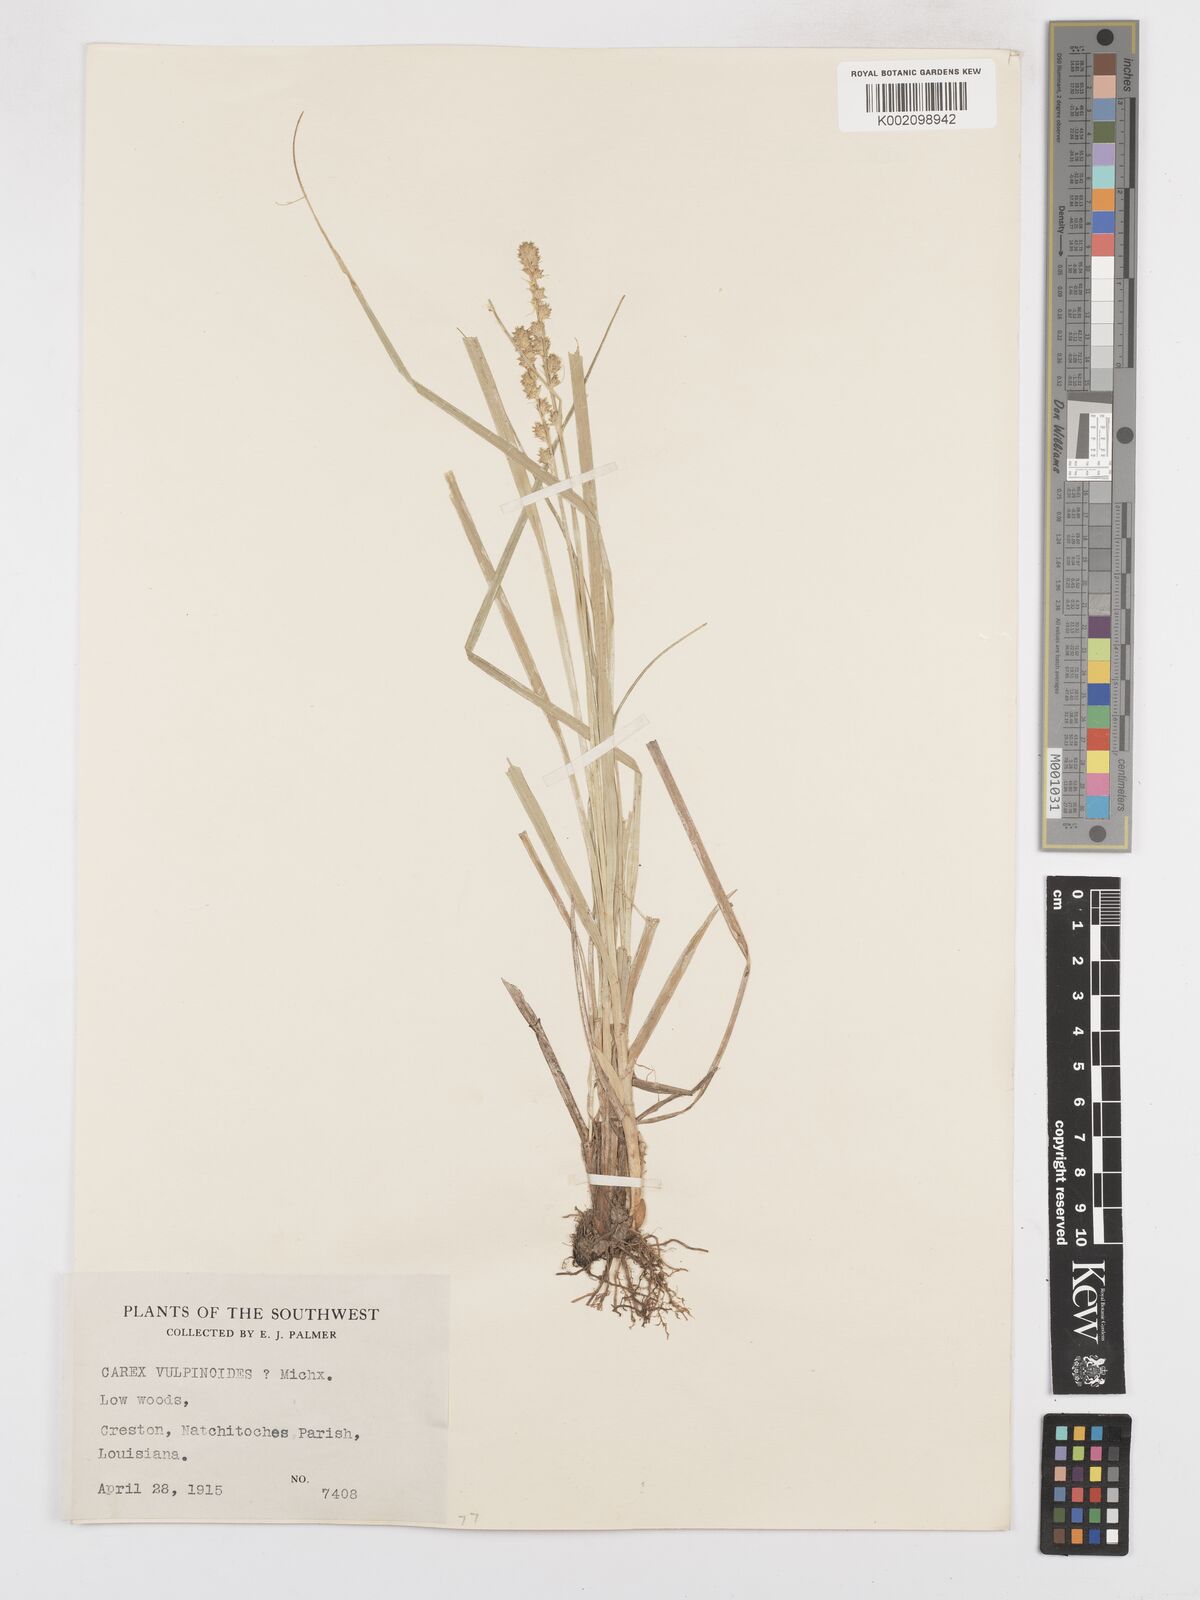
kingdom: Plantae
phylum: Tracheophyta
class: Liliopsida
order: Poales
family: Cyperaceae
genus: Carex
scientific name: Carex vulpinoidea
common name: American fox-sedge
